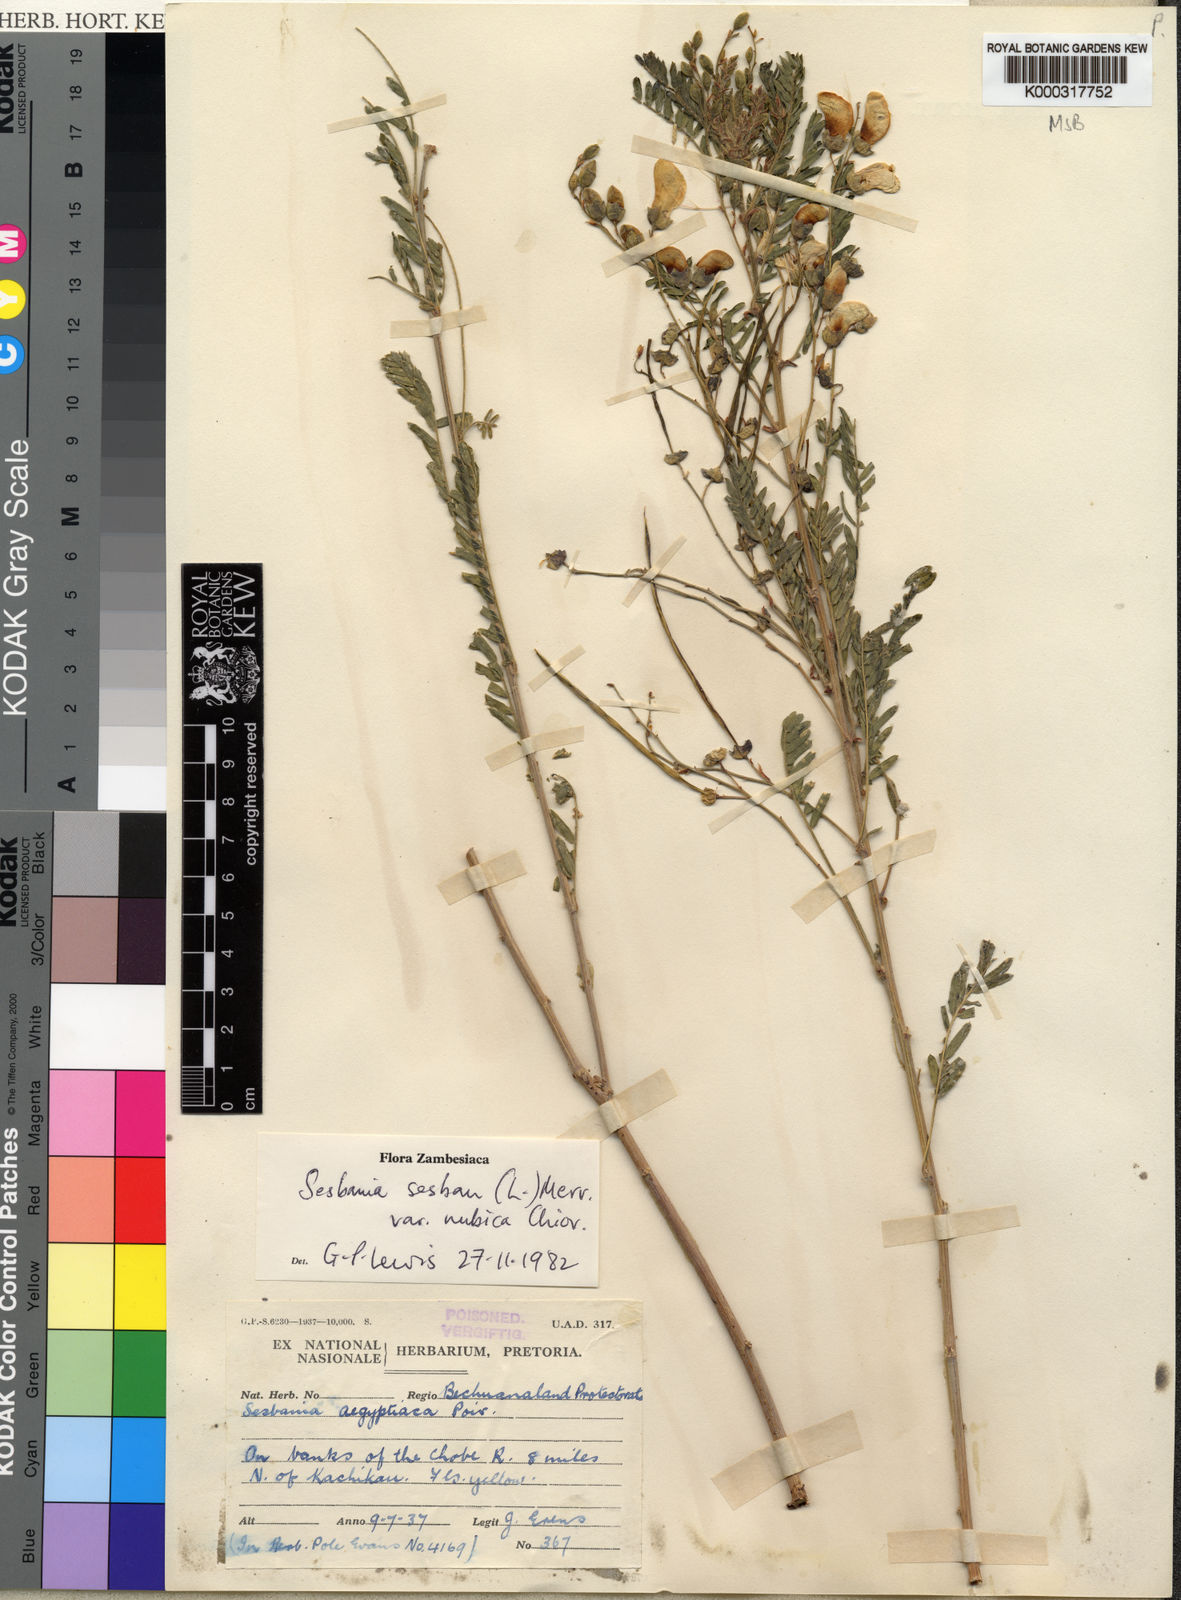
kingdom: Plantae
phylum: Tracheophyta
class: Magnoliopsida
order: Fabales
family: Fabaceae
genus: Sesbania
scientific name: Sesbania sesban
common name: Egyptian sesban
